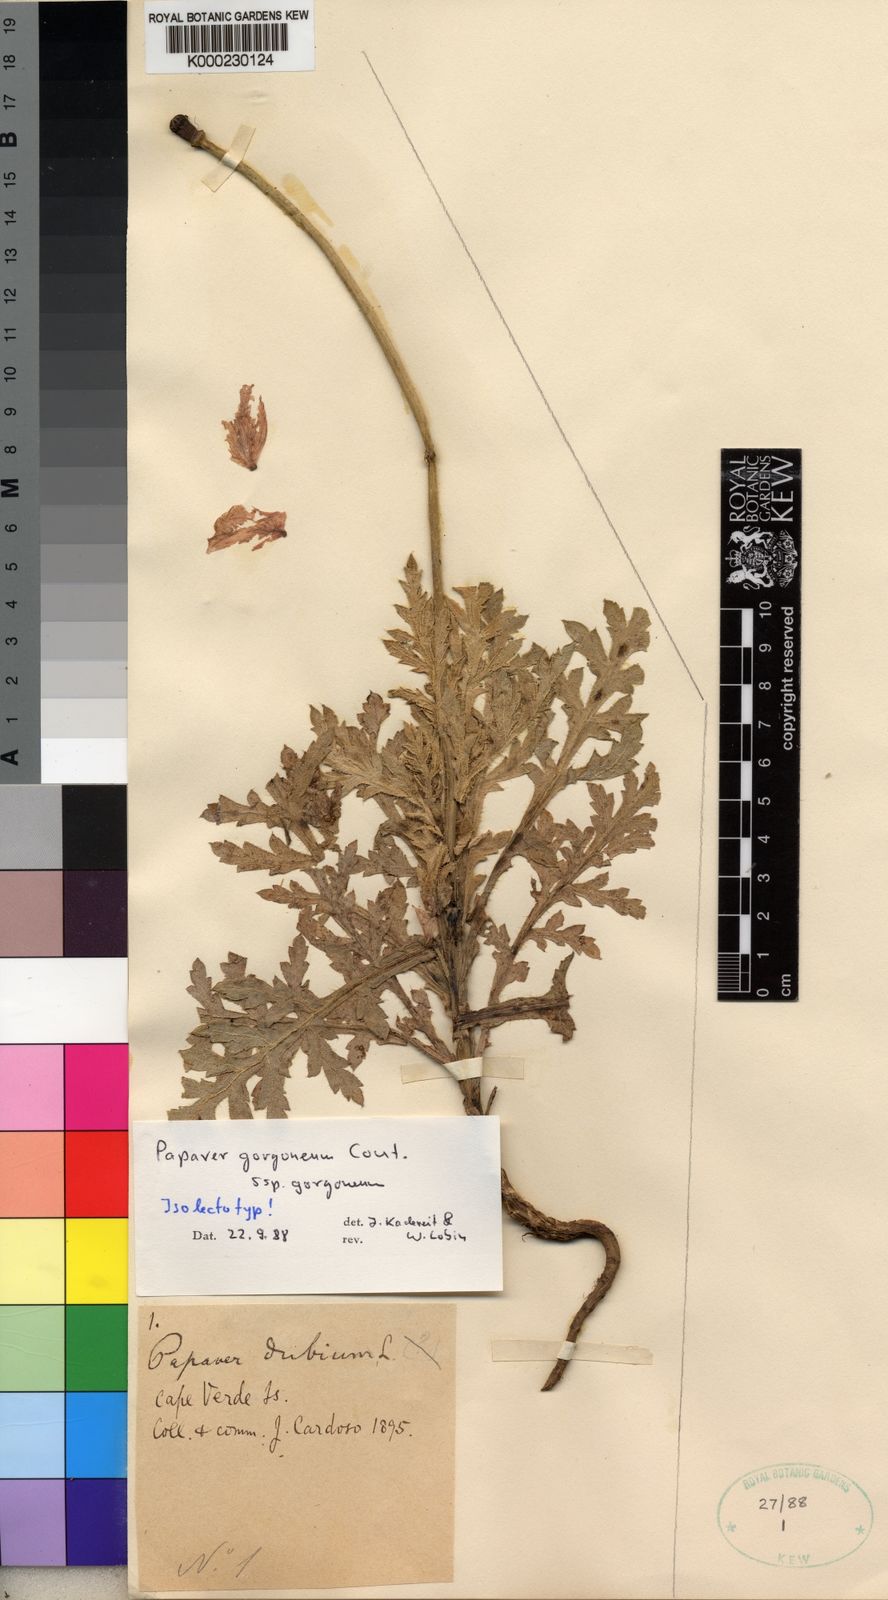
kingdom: Plantae
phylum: Tracheophyta
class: Magnoliopsida
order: Ranunculales
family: Papaveraceae
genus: Papaver
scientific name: Papaver gorgoneum
